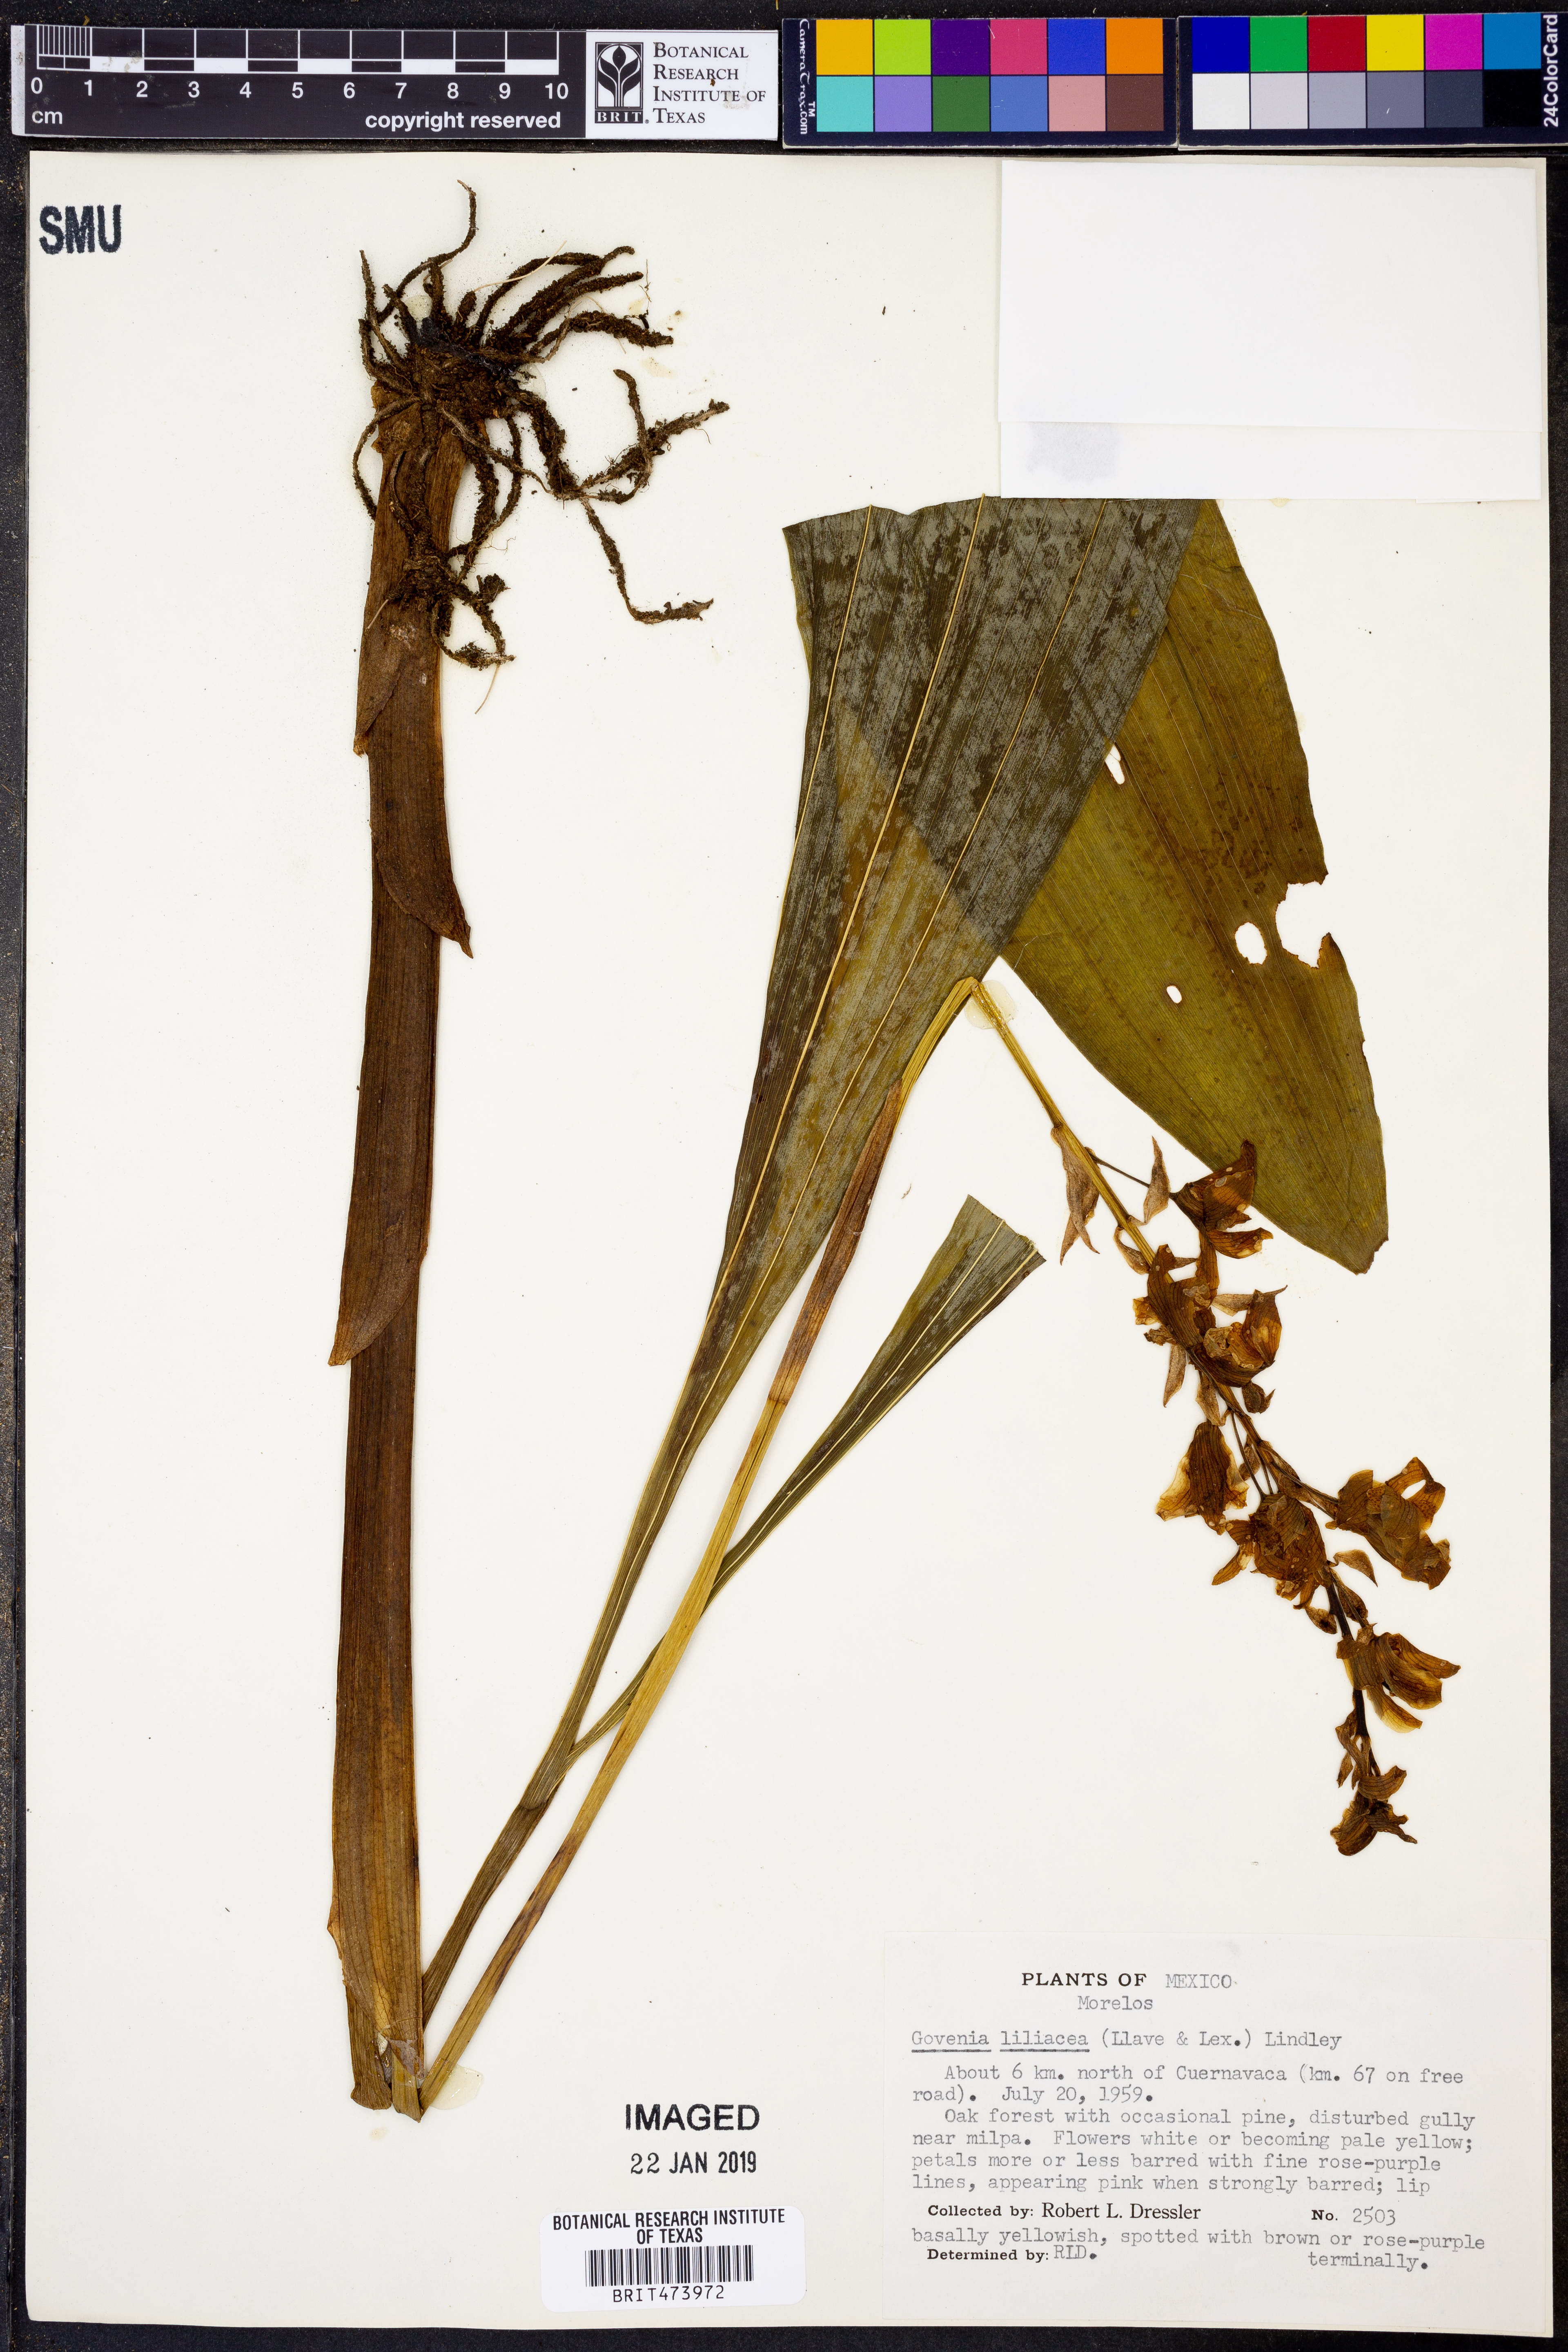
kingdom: Plantae
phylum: Tracheophyta
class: Liliopsida
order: Asparagales
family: Orchidaceae
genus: Govenia
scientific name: Govenia liliacea
